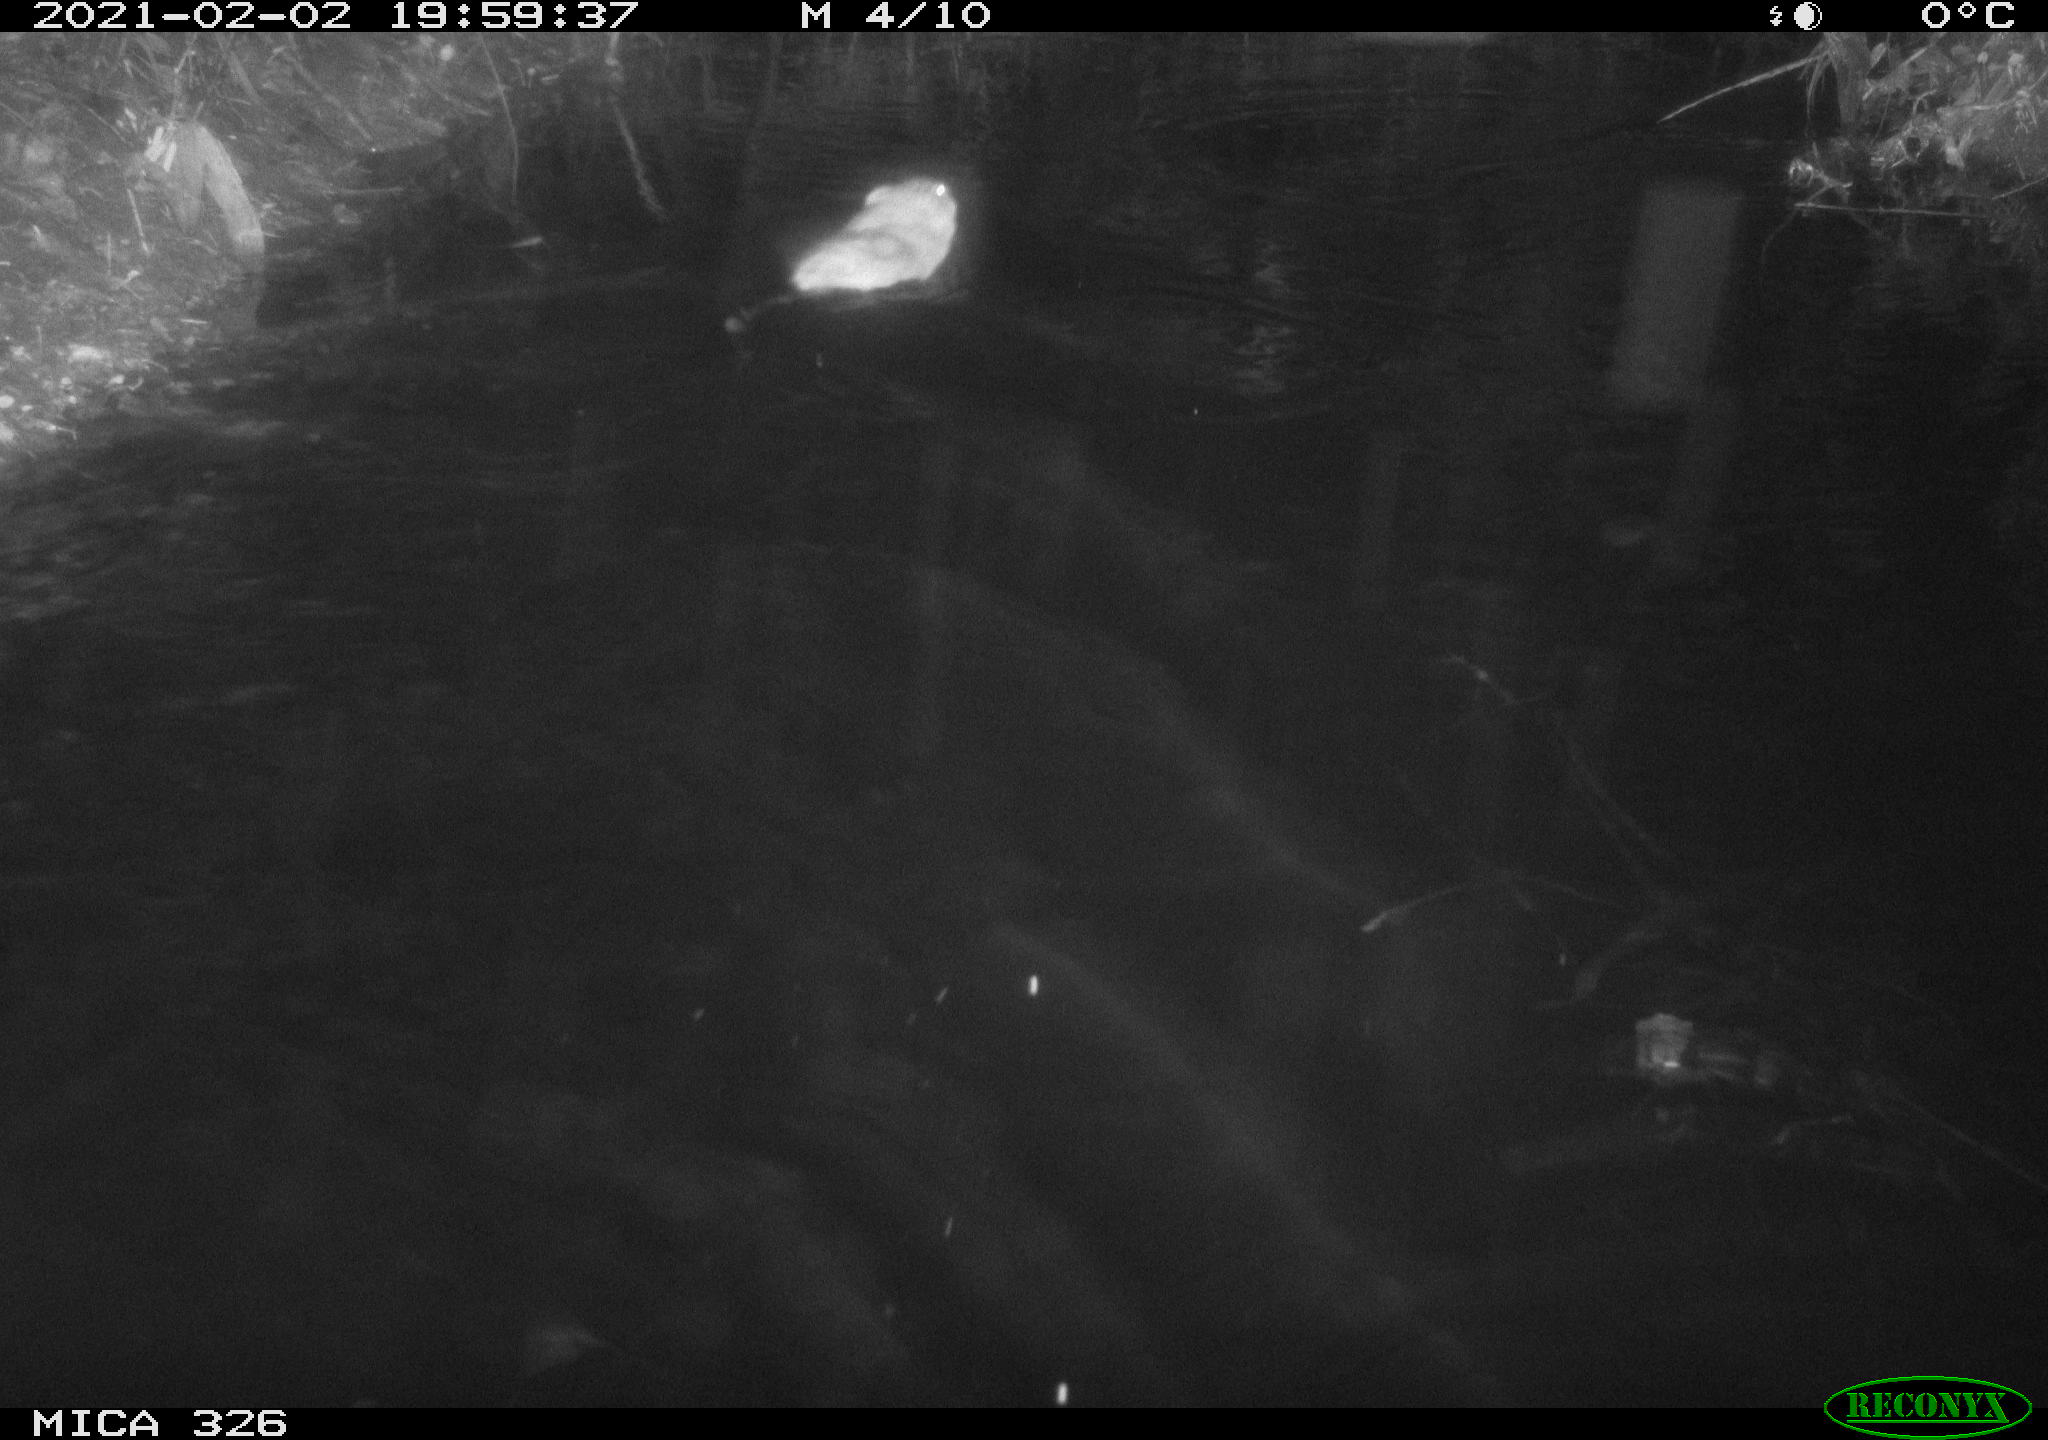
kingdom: Animalia
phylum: Chordata
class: Mammalia
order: Rodentia
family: Cricetidae
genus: Ondatra
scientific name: Ondatra zibethicus
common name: Muskrat
